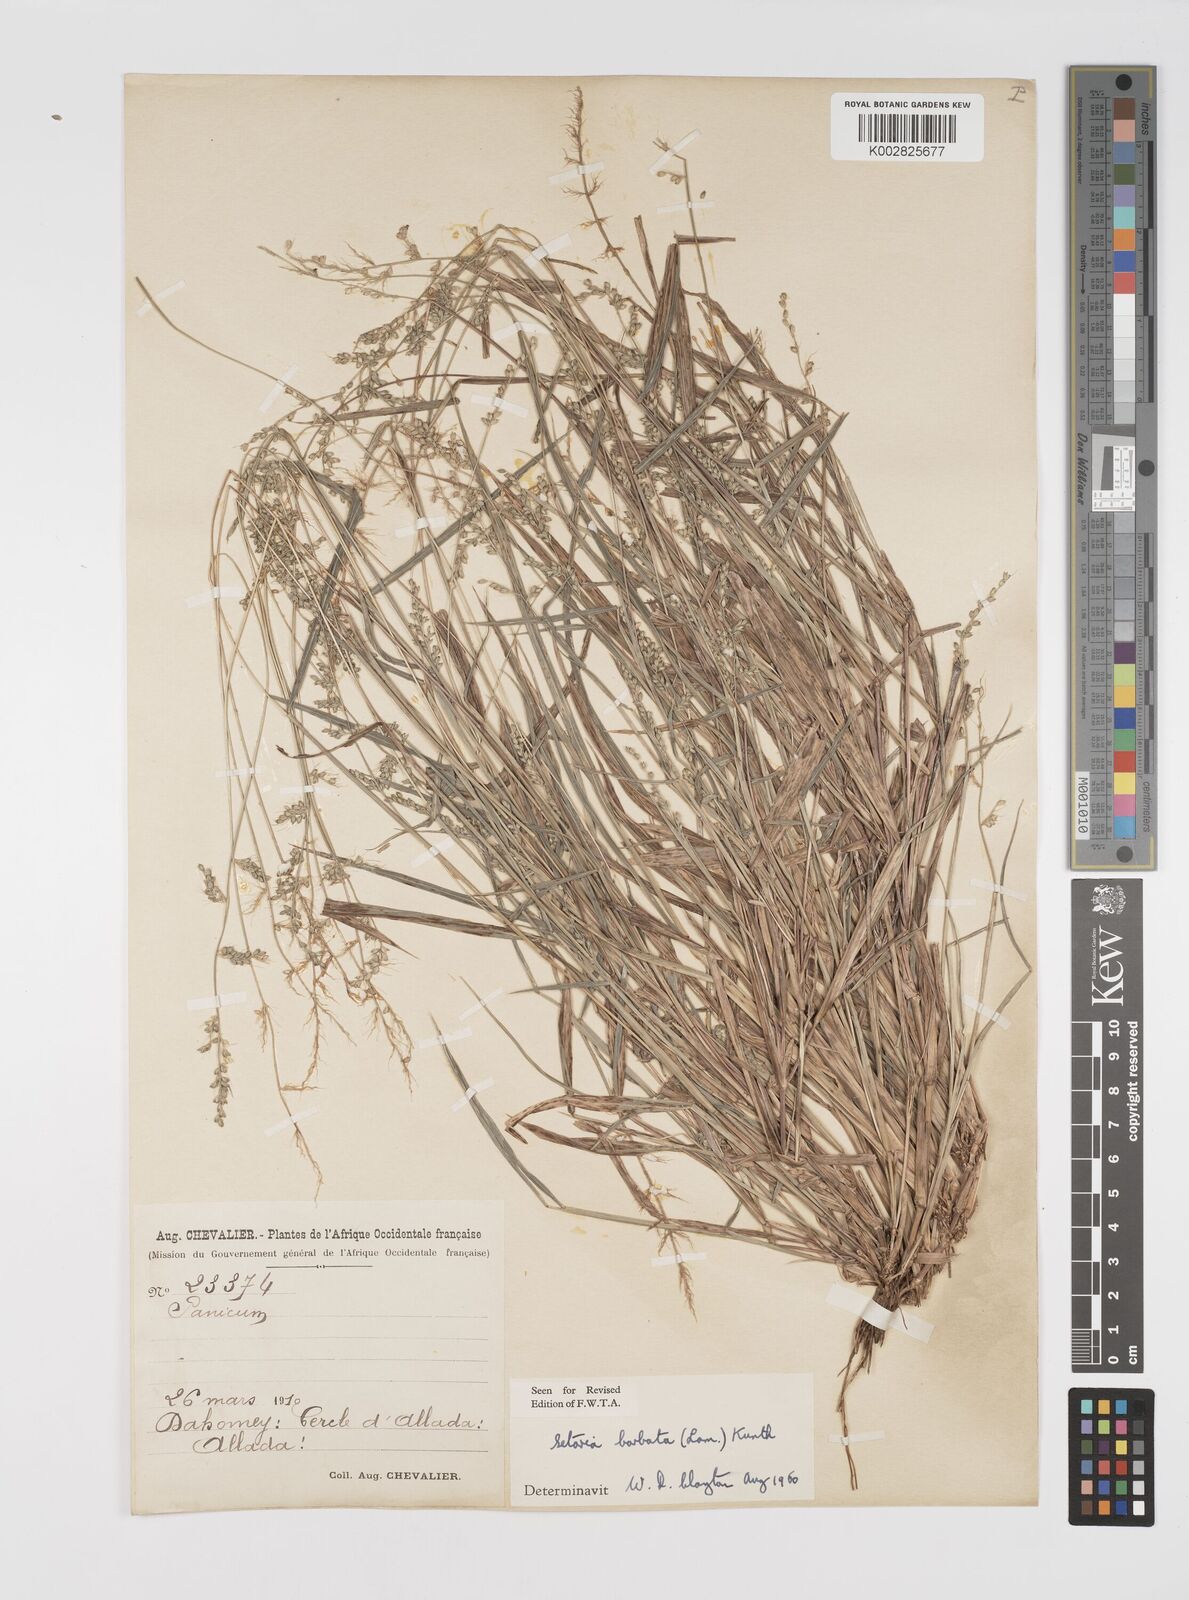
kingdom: Plantae
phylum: Tracheophyta
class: Liliopsida
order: Poales
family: Poaceae
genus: Setaria
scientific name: Setaria barbata
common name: East indian bristlegrass
